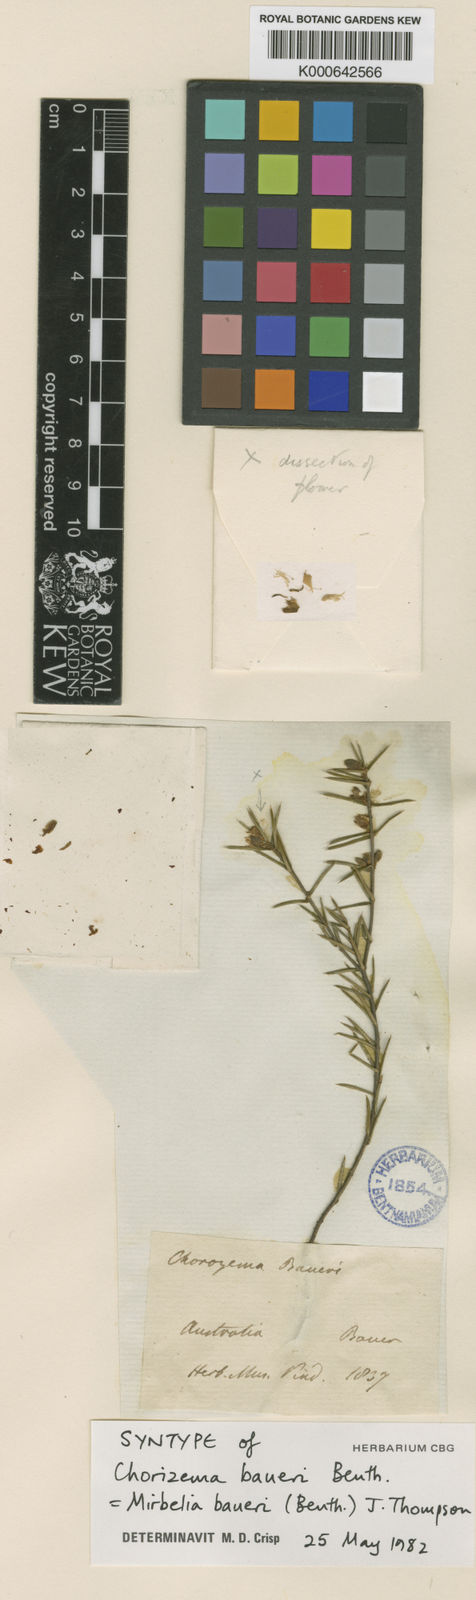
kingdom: Plantae
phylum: Tracheophyta
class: Magnoliopsida
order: Fabales
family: Fabaceae
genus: Mirbelia
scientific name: Mirbelia baueri
